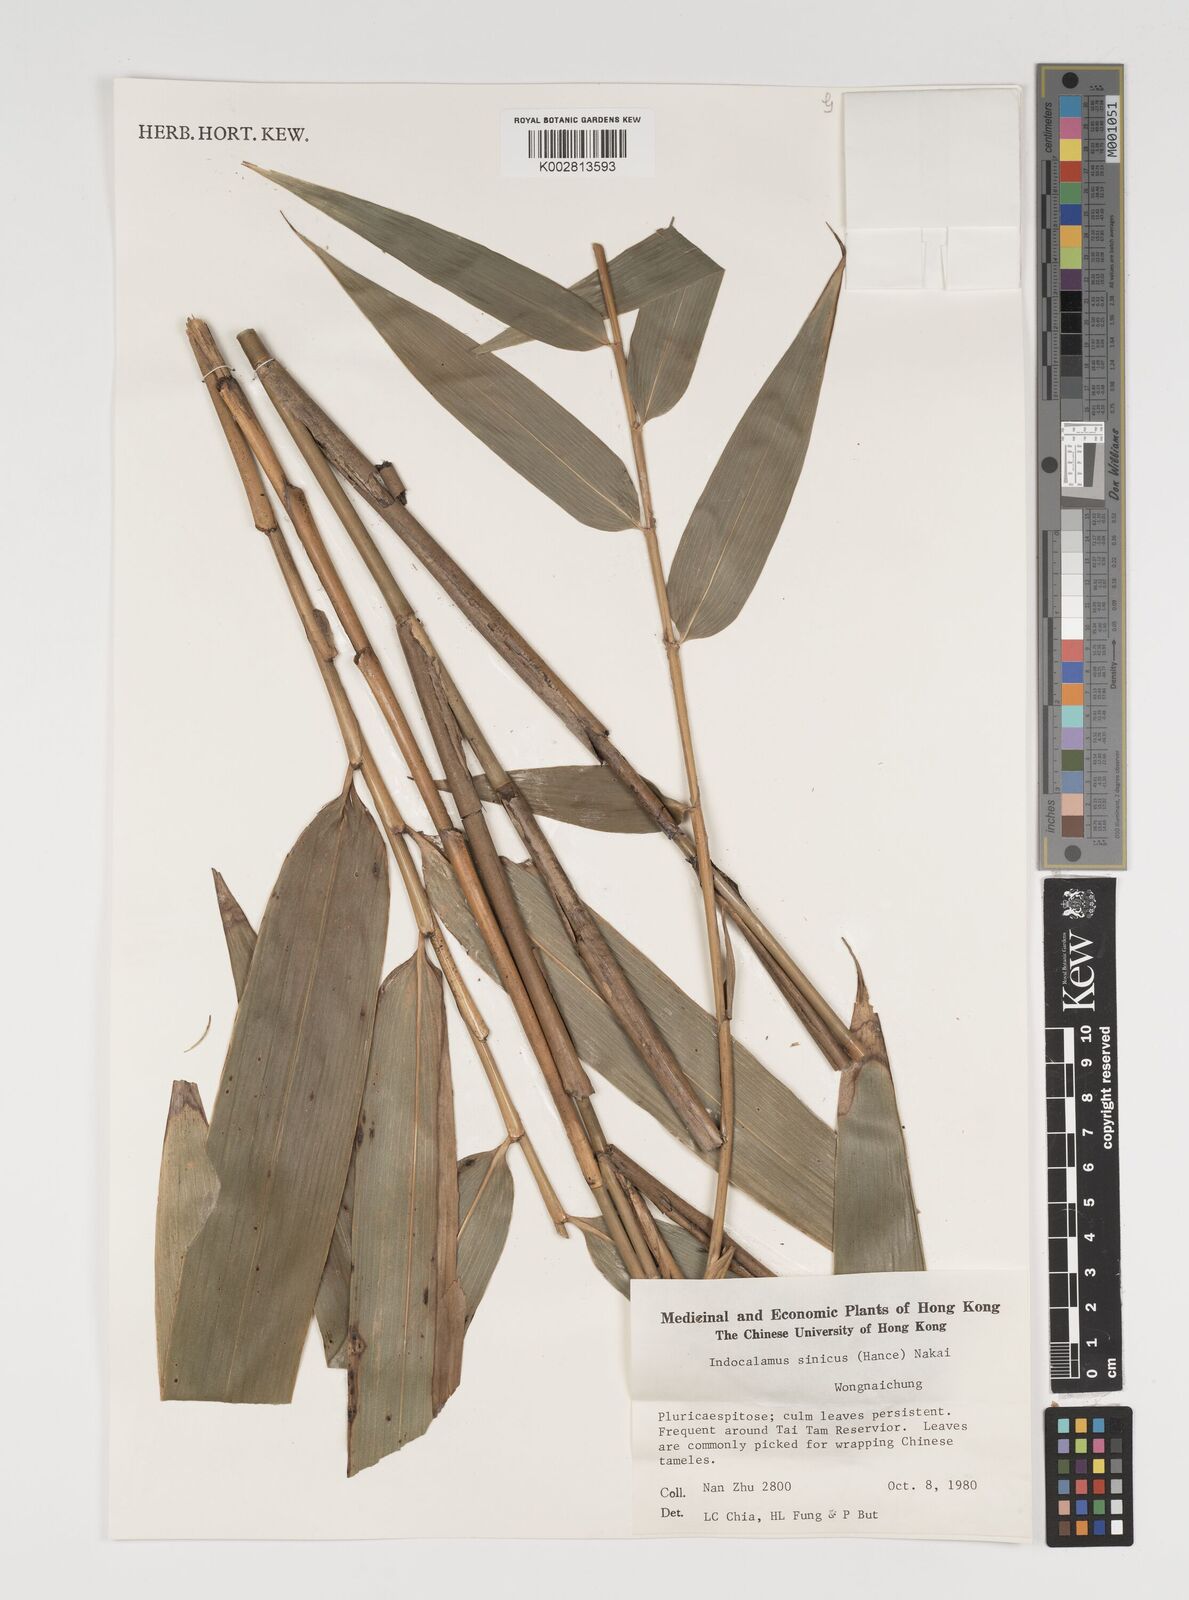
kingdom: Plantae
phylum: Tracheophyta
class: Liliopsida
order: Poales
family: Poaceae
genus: Indocalamus
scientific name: Indocalamus sinicus
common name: Chinese cane
